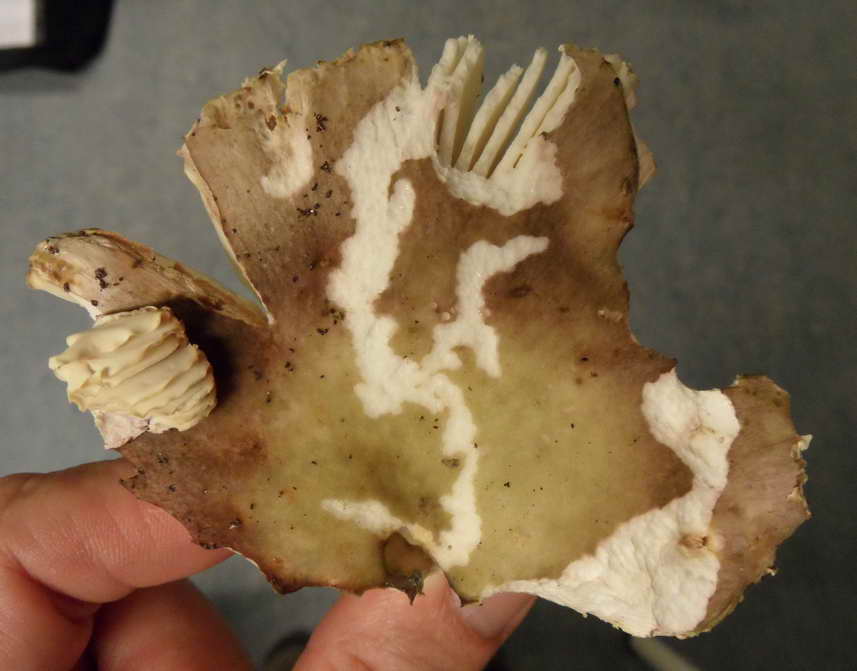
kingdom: Fungi
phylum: Basidiomycota
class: Agaricomycetes
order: Russulales
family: Russulaceae
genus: Russula
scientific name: Russula ionochlora
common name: violetgrøn skørhat
